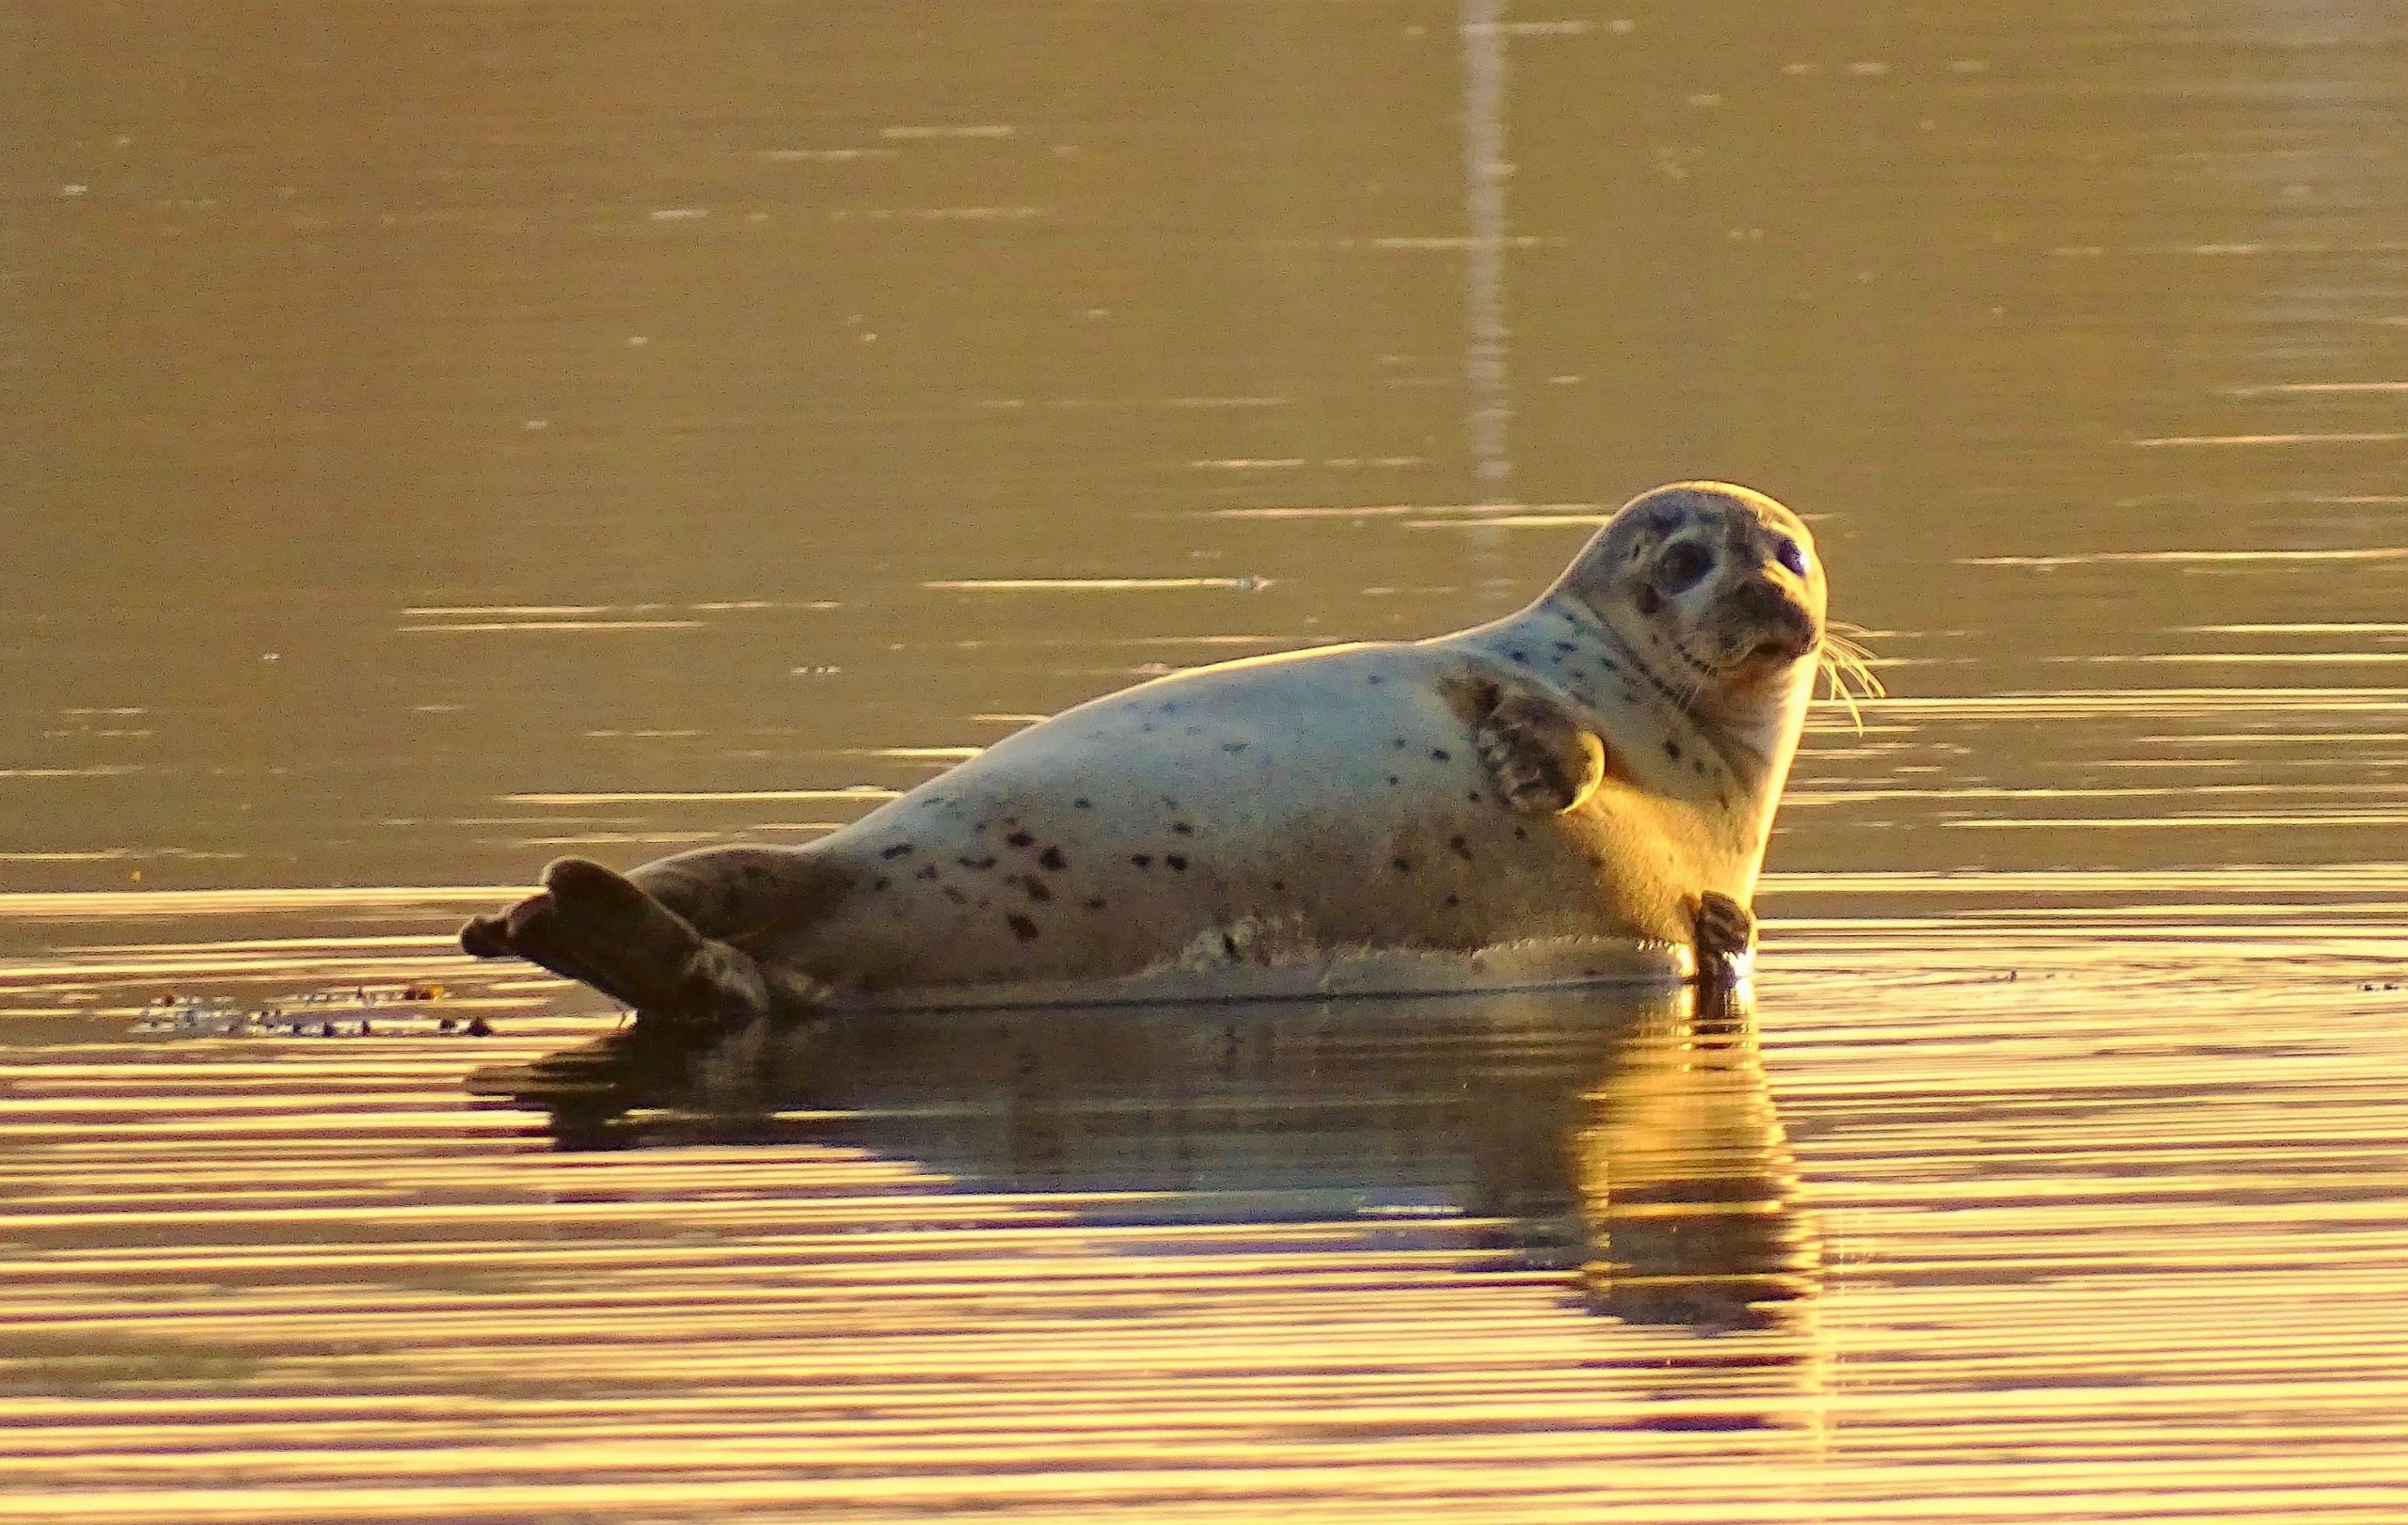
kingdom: Animalia
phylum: Chordata
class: Mammalia
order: Carnivora
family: Phocidae
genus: Phoca
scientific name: Phoca vitulina
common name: Spættet sæl
